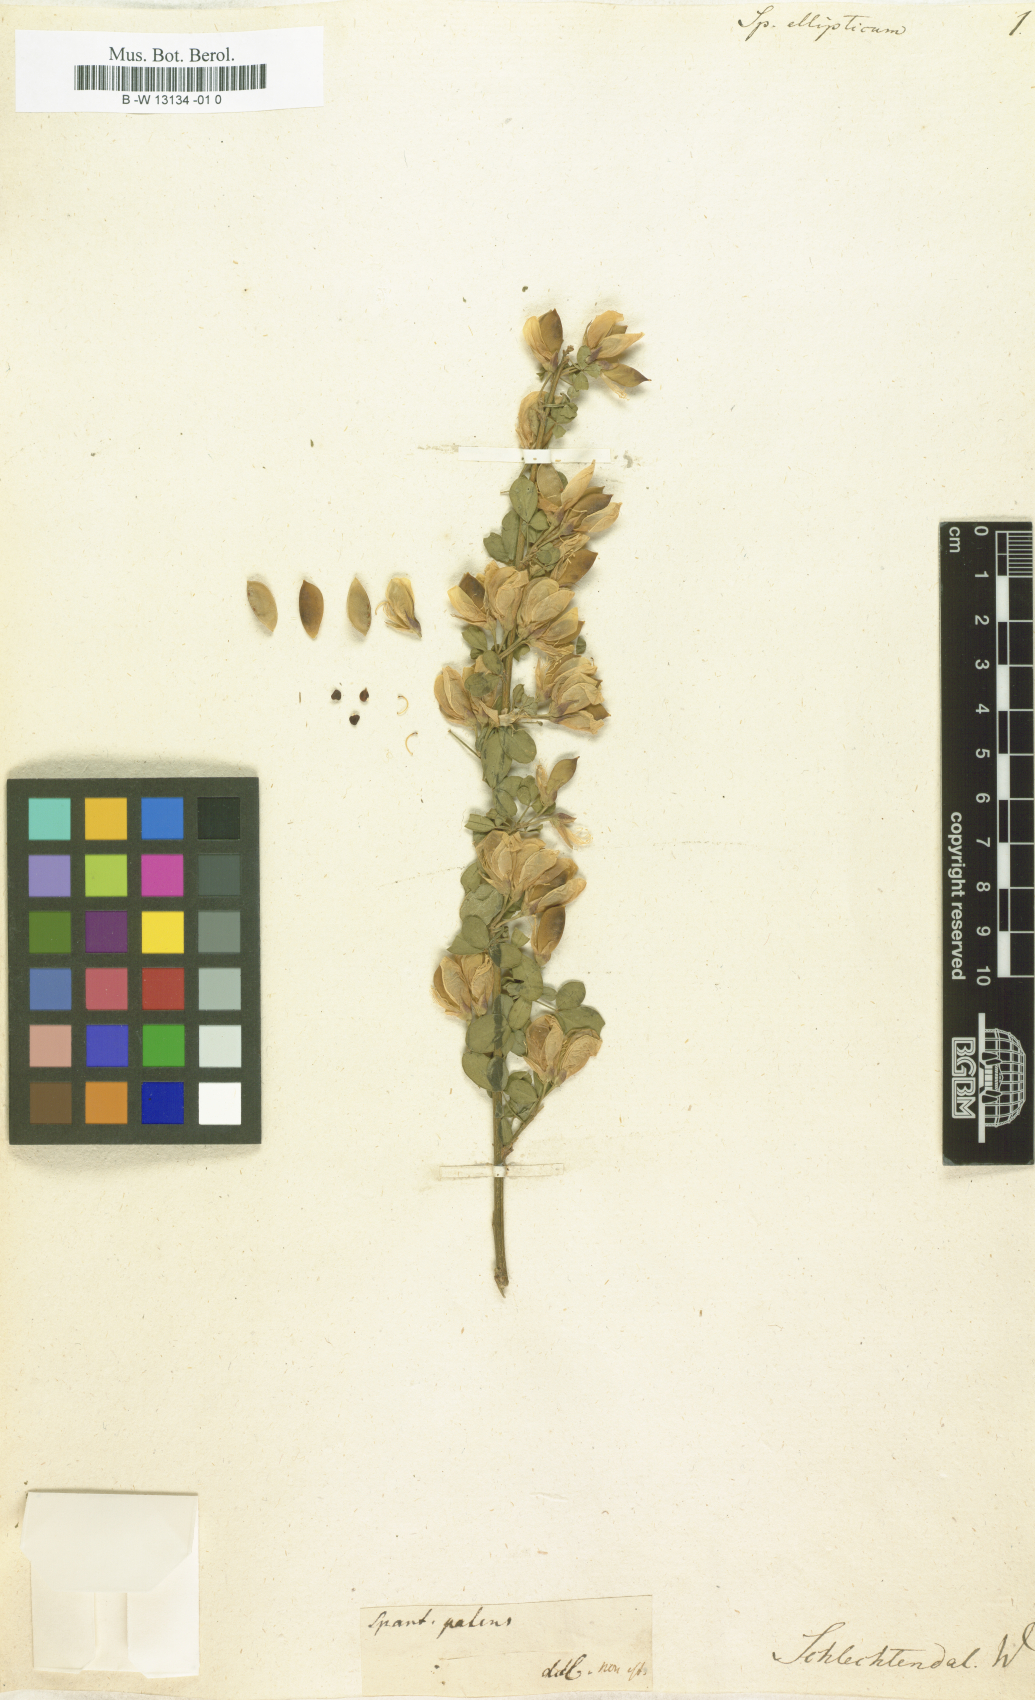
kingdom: Plantae
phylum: Tracheophyta
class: Magnoliopsida
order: Fabales
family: Fabaceae
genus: Genista
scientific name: Genista patens
